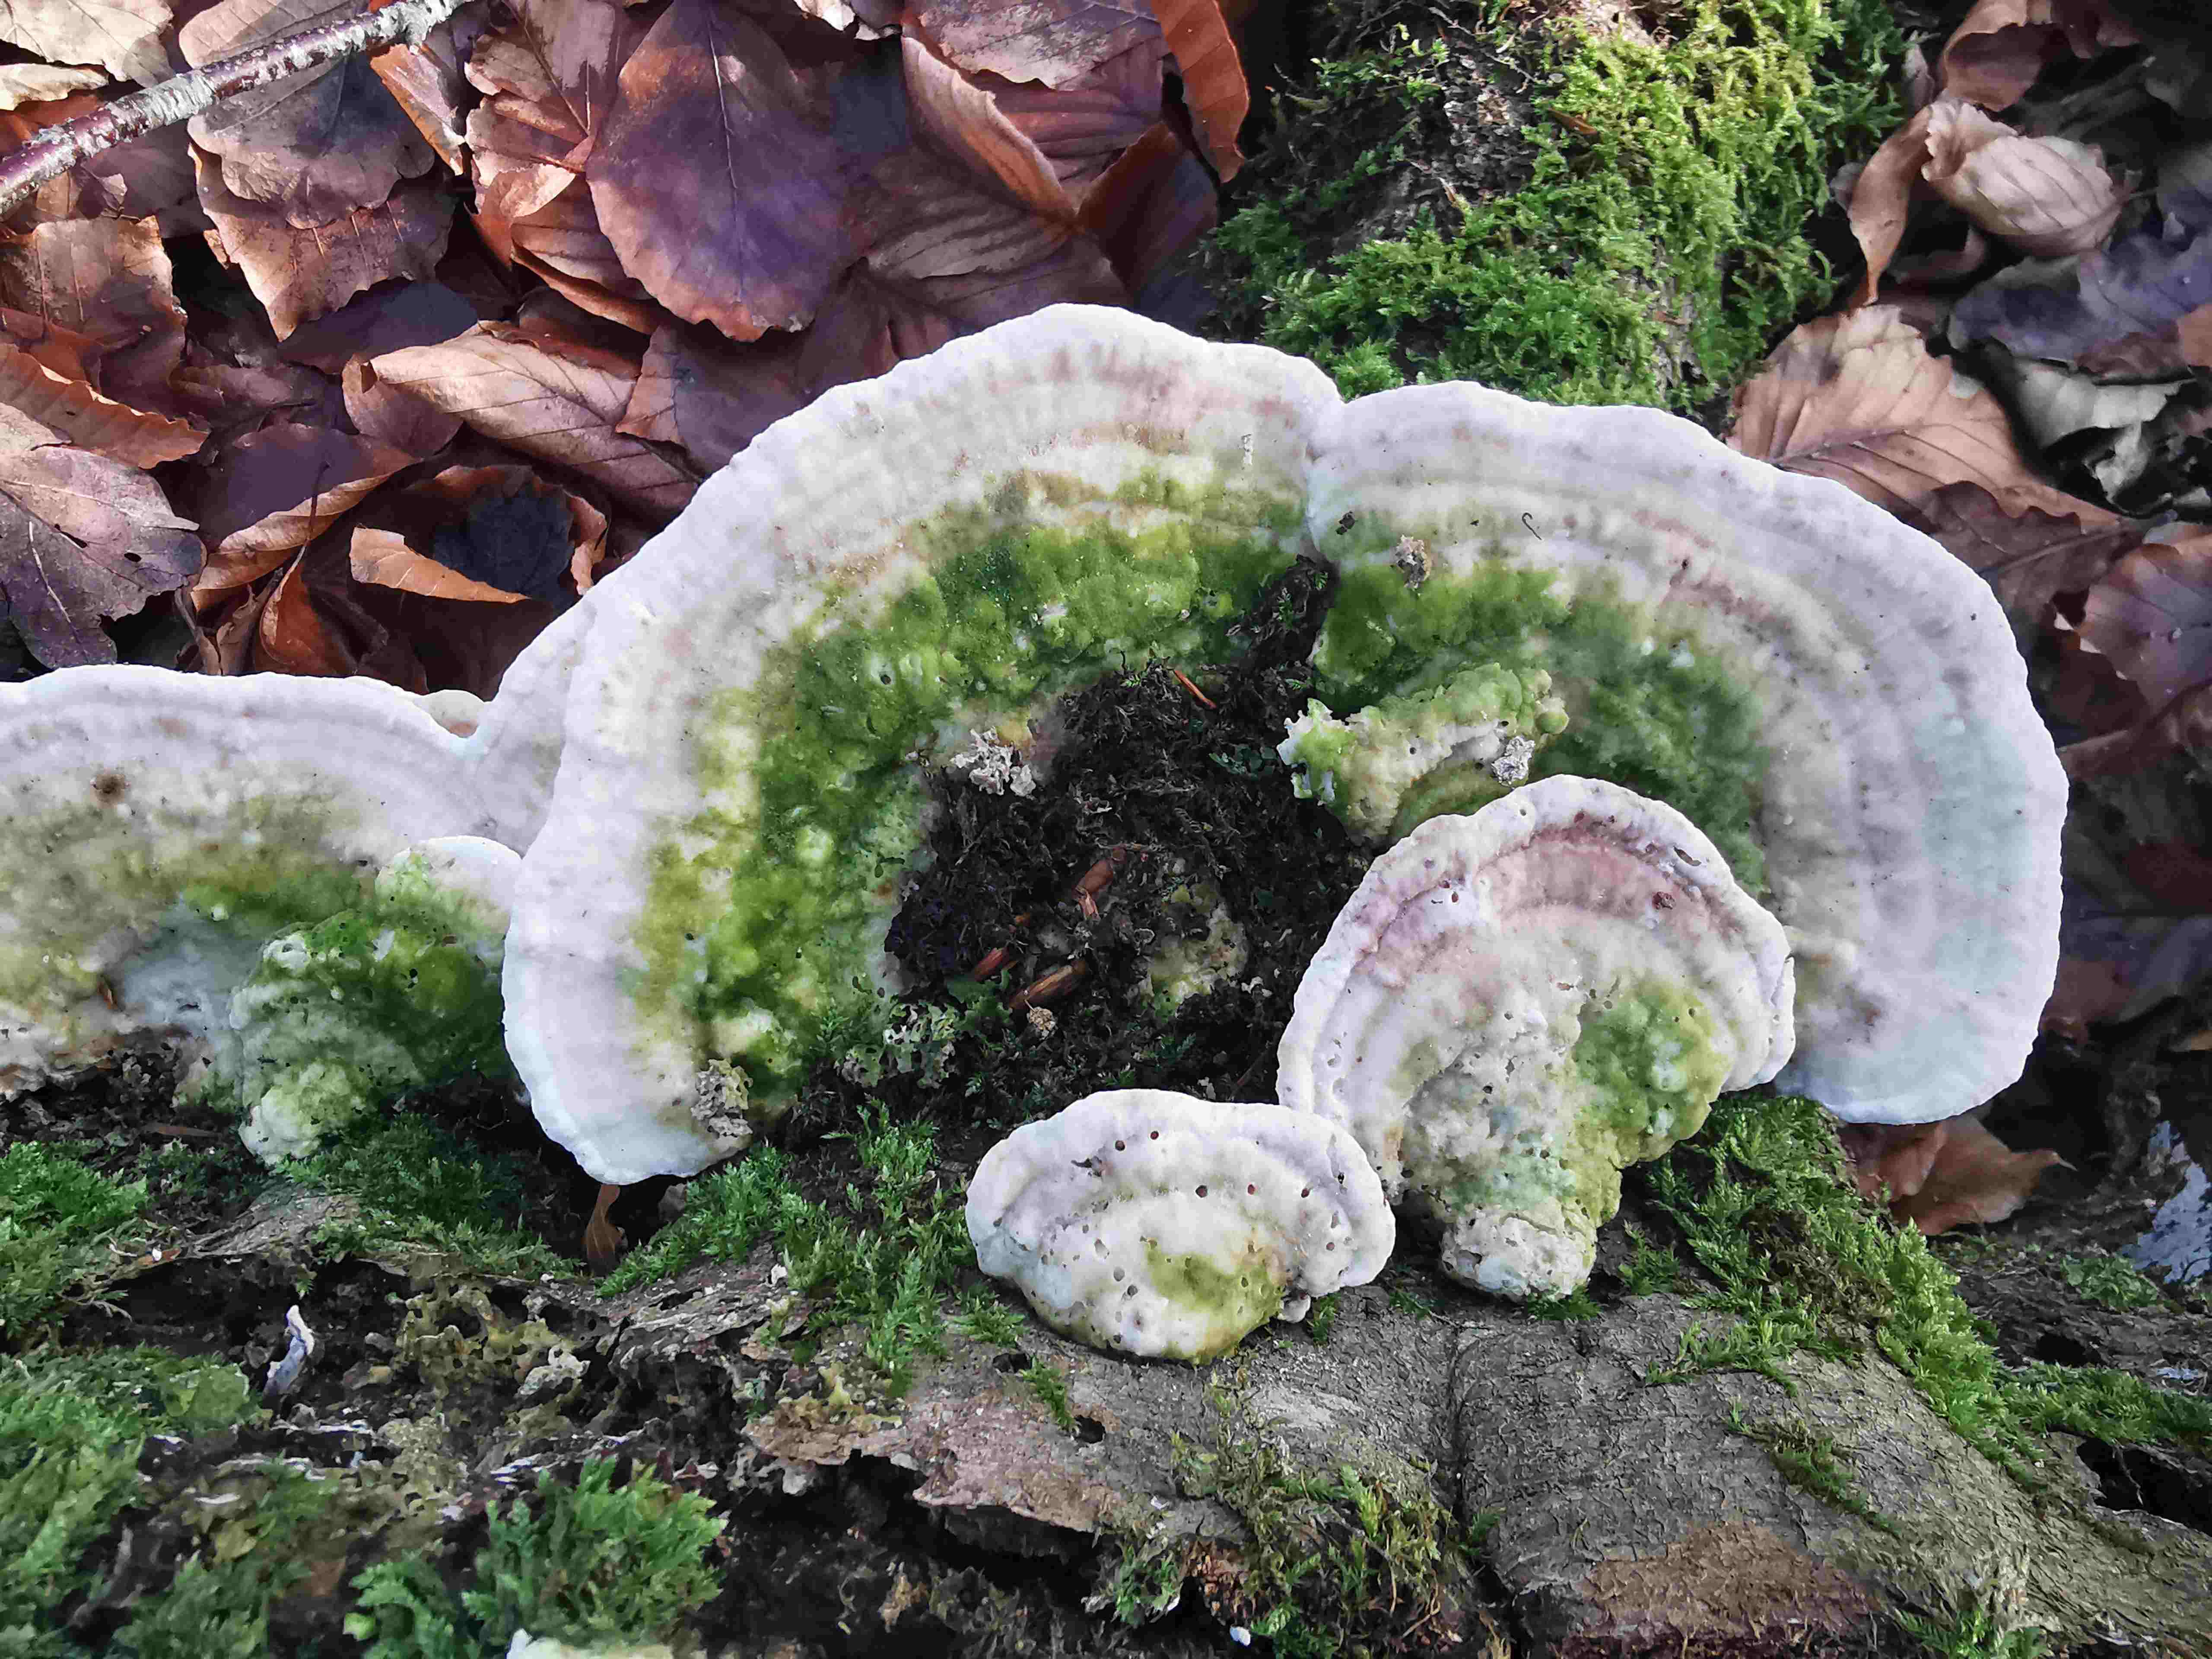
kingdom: Fungi
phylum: Basidiomycota
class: Agaricomycetes
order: Polyporales
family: Polyporaceae
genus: Trametes
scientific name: Trametes gibbosa
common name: puklet læderporesvamp
